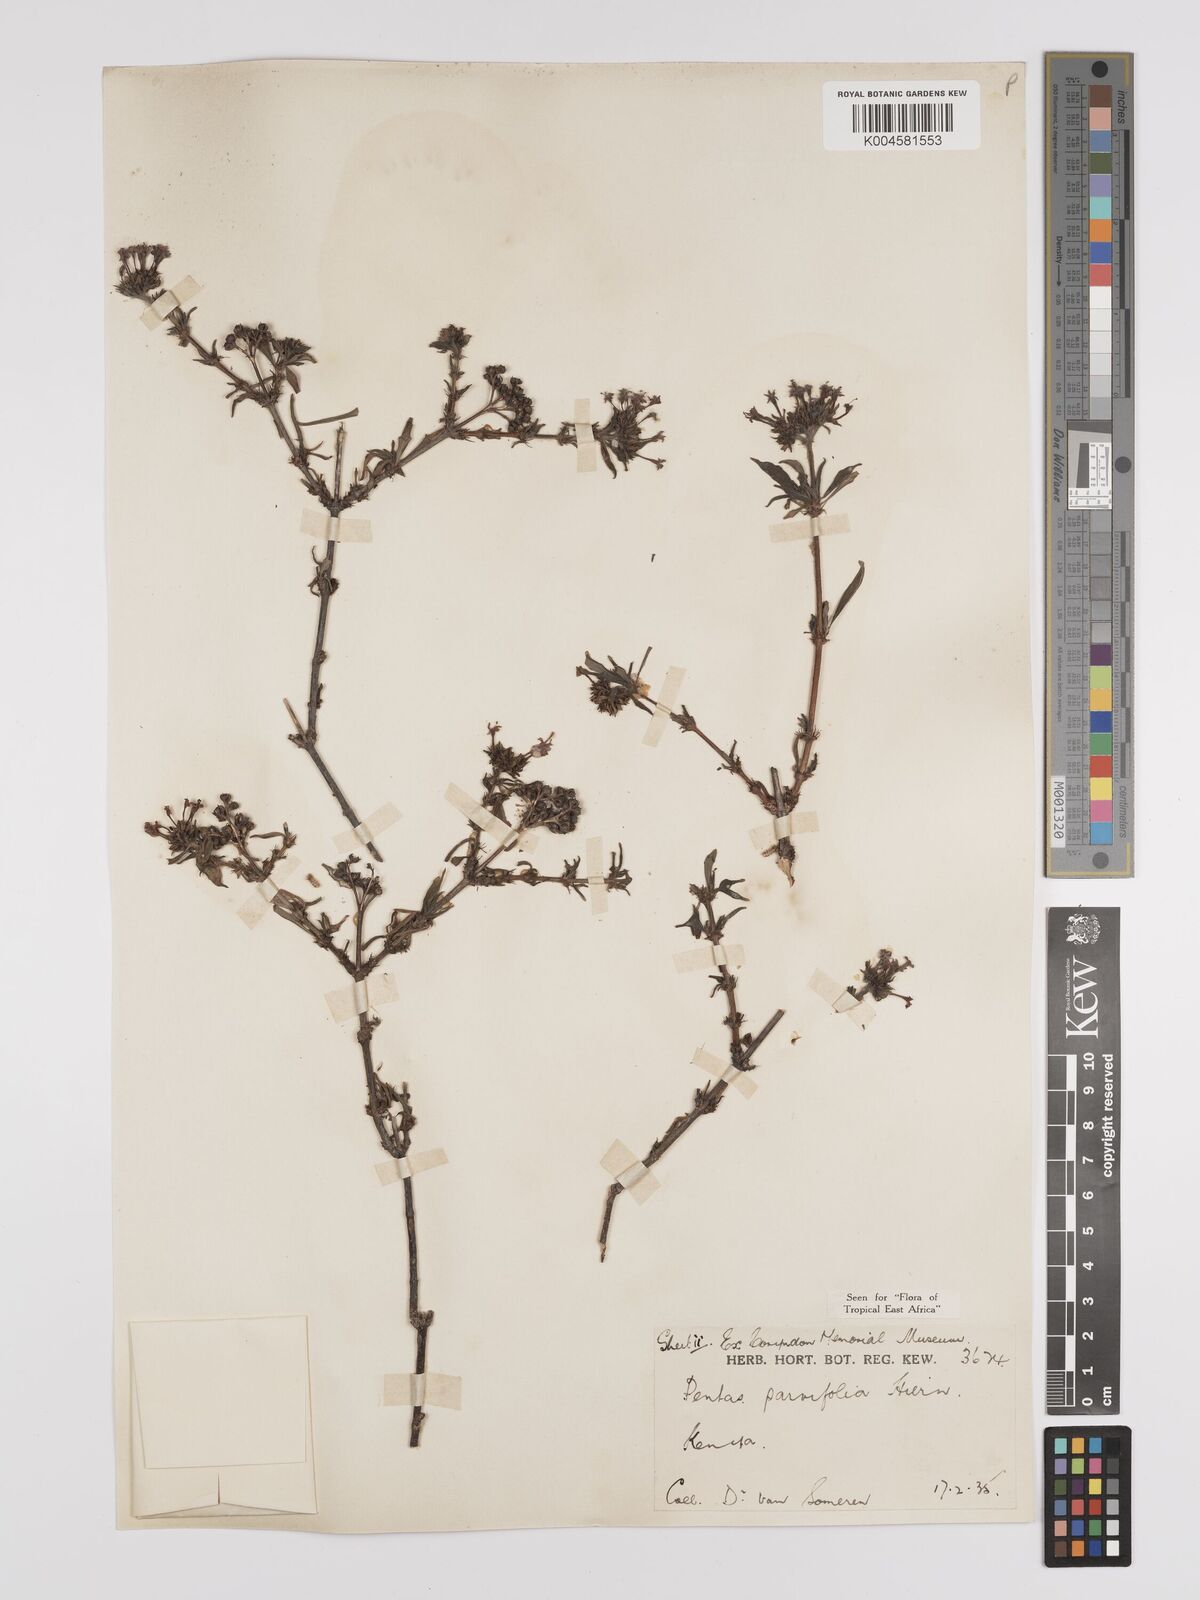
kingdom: Plantae
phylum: Tracheophyta
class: Magnoliopsida
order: Gentianales
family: Rubiaceae
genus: Rhodopentas
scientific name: Rhodopentas parvifolia
